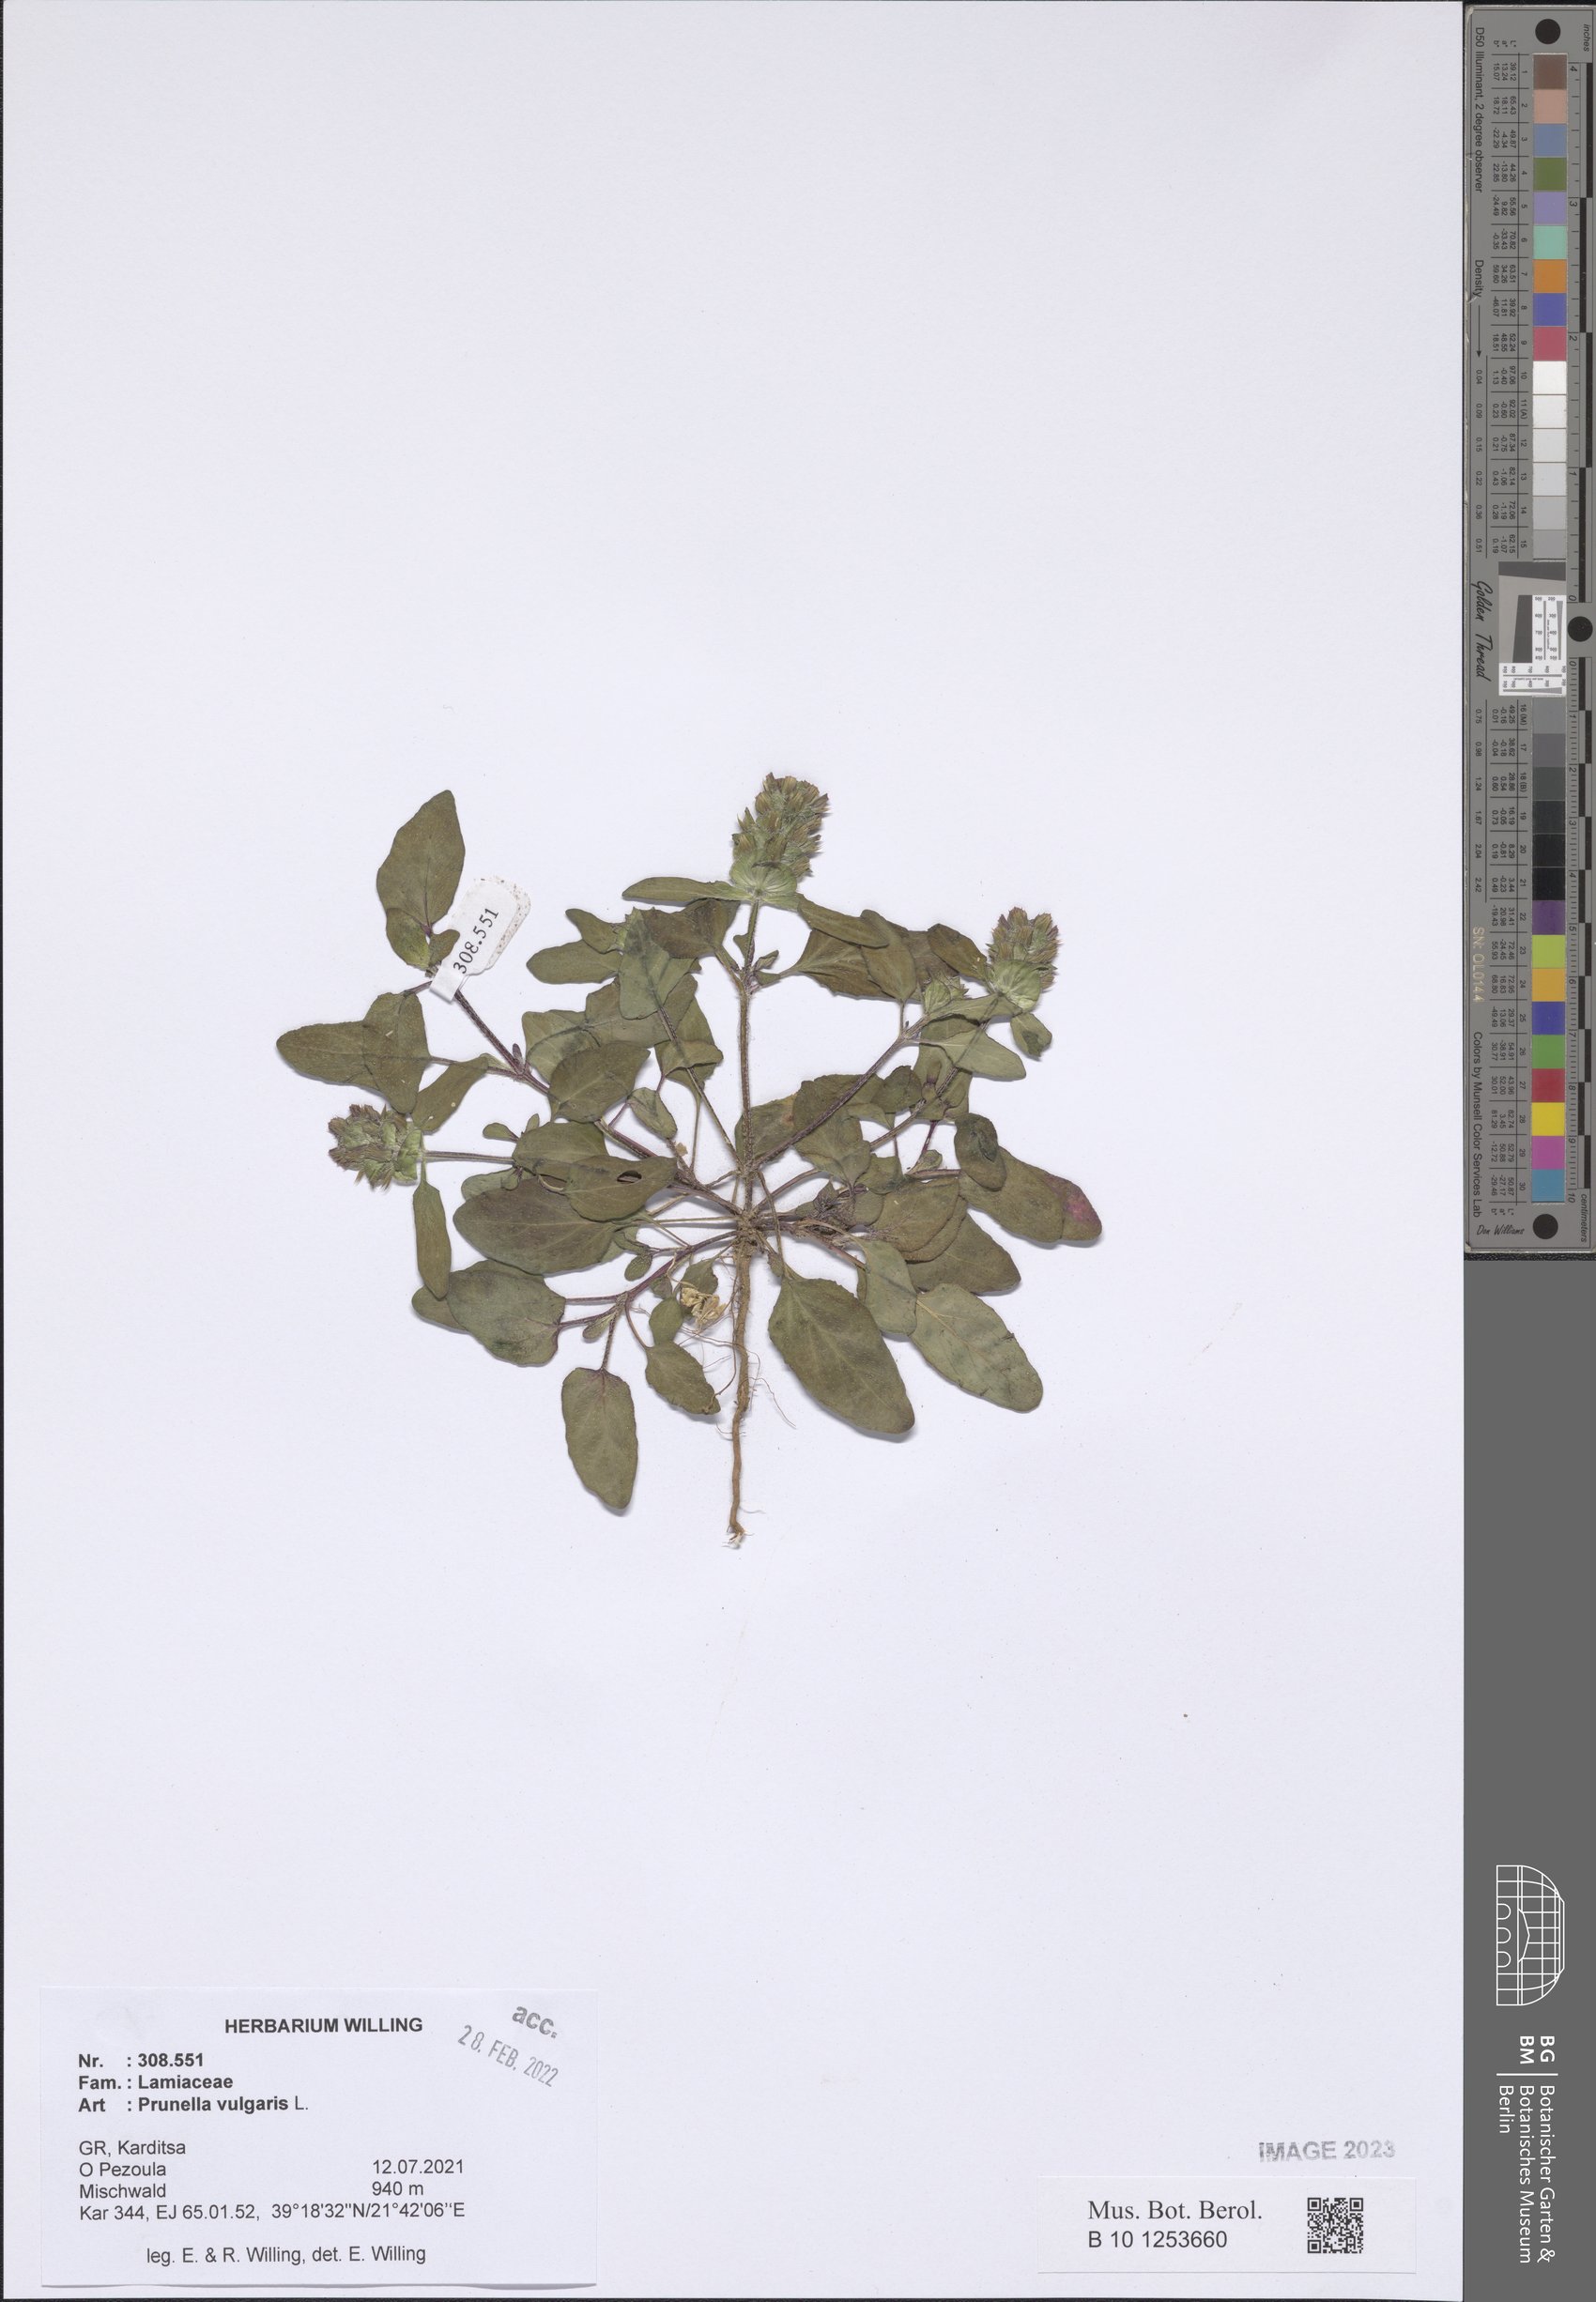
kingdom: Plantae
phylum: Tracheophyta
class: Magnoliopsida
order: Lamiales
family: Lamiaceae
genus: Prunella
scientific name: Prunella vulgaris
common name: Heal-all
